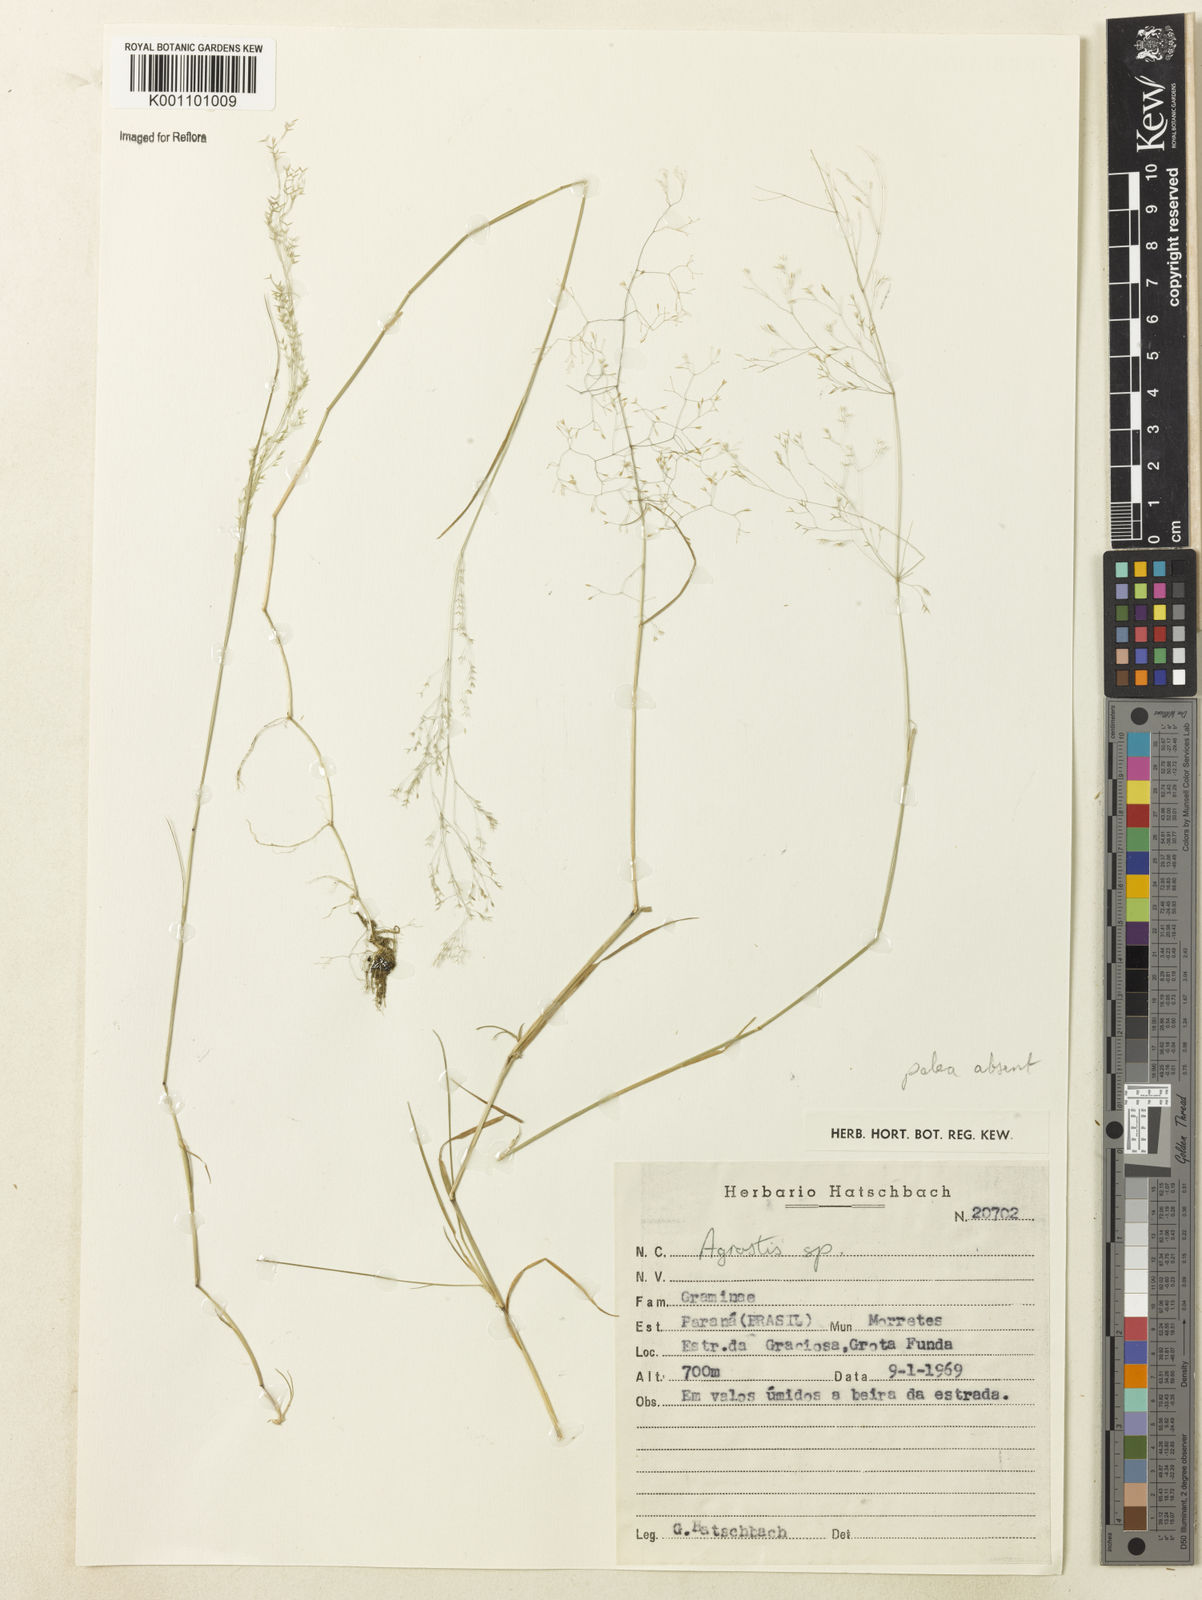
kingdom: Plantae
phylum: Tracheophyta
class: Liliopsida
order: Poales
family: Poaceae
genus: Agrostis
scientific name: Agrostis
